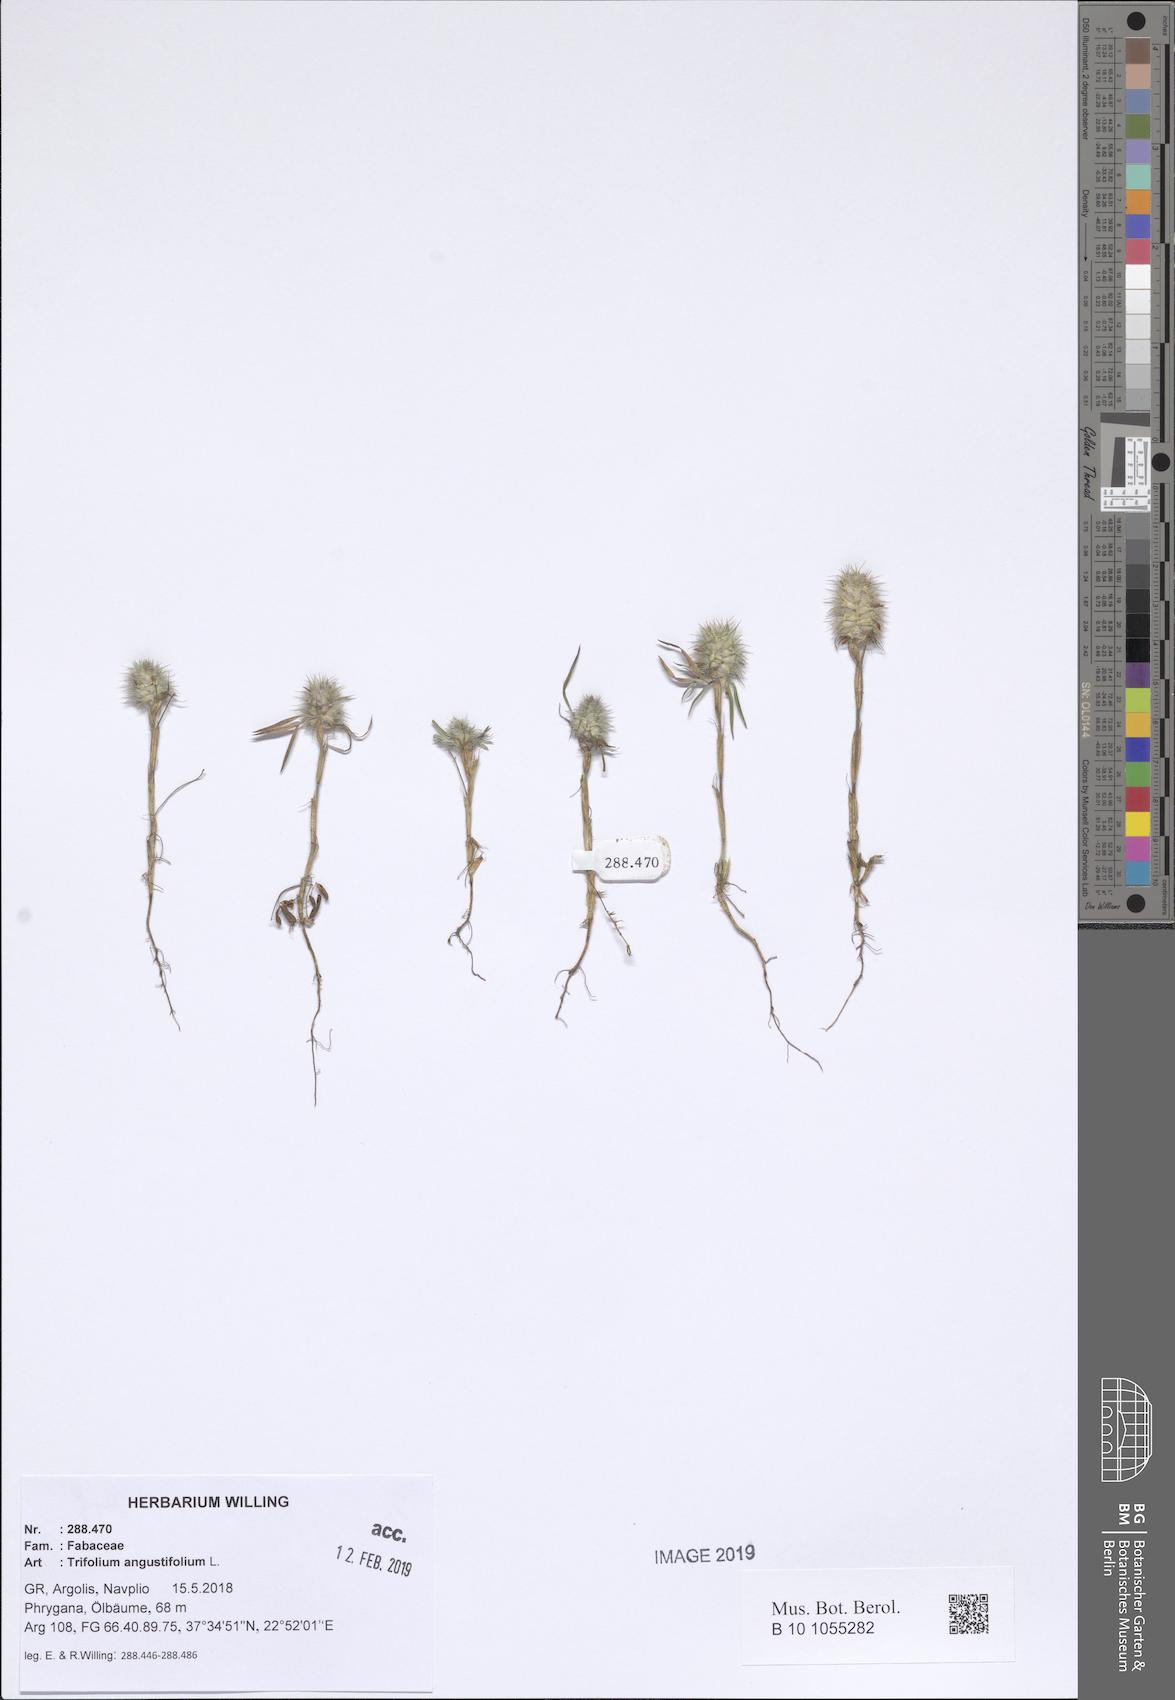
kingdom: Plantae
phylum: Tracheophyta
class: Magnoliopsida
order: Fabales
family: Fabaceae
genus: Trifolium
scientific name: Trifolium angustifolium
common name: Narrow clover
